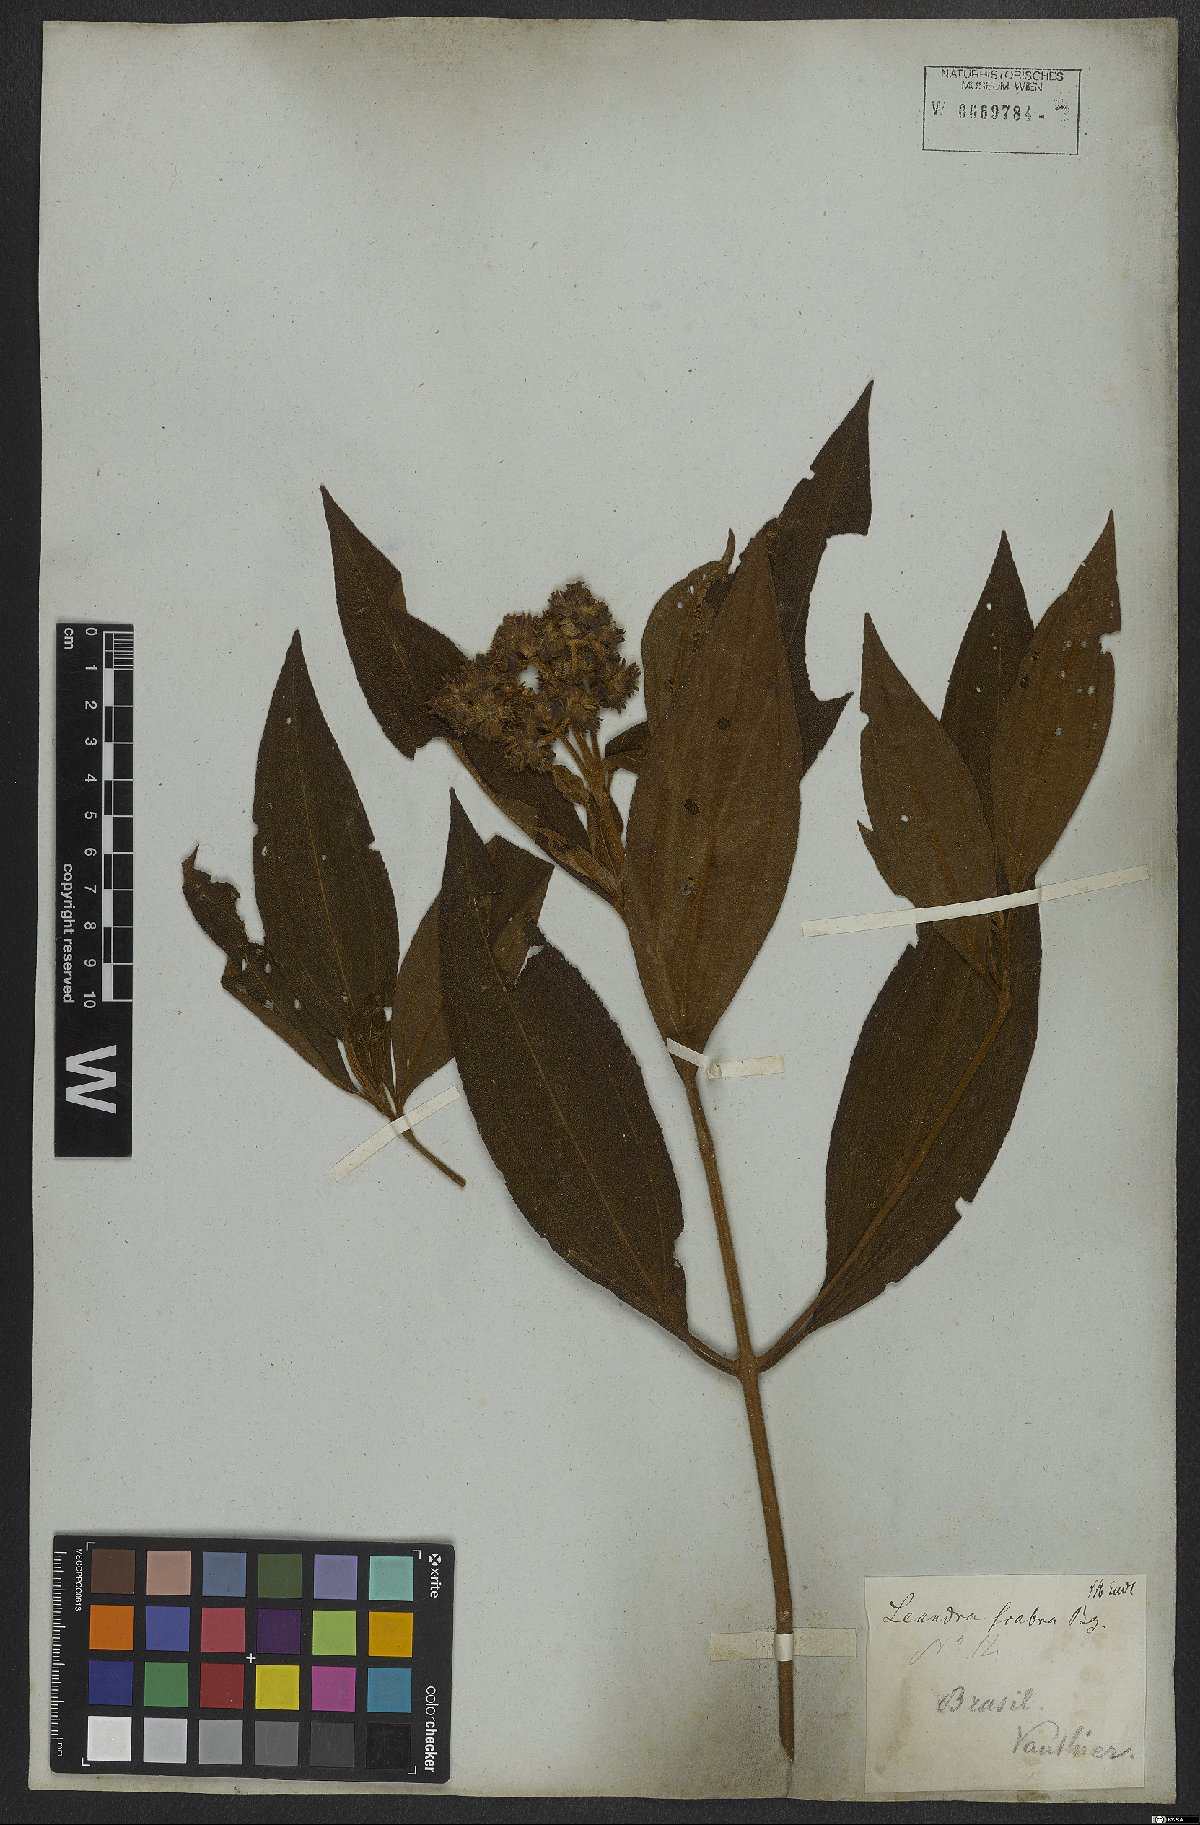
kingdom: Plantae
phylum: Tracheophyta
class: Magnoliopsida
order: Myrtales
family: Melastomataceae
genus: Miconia
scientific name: Miconia melastomoides
